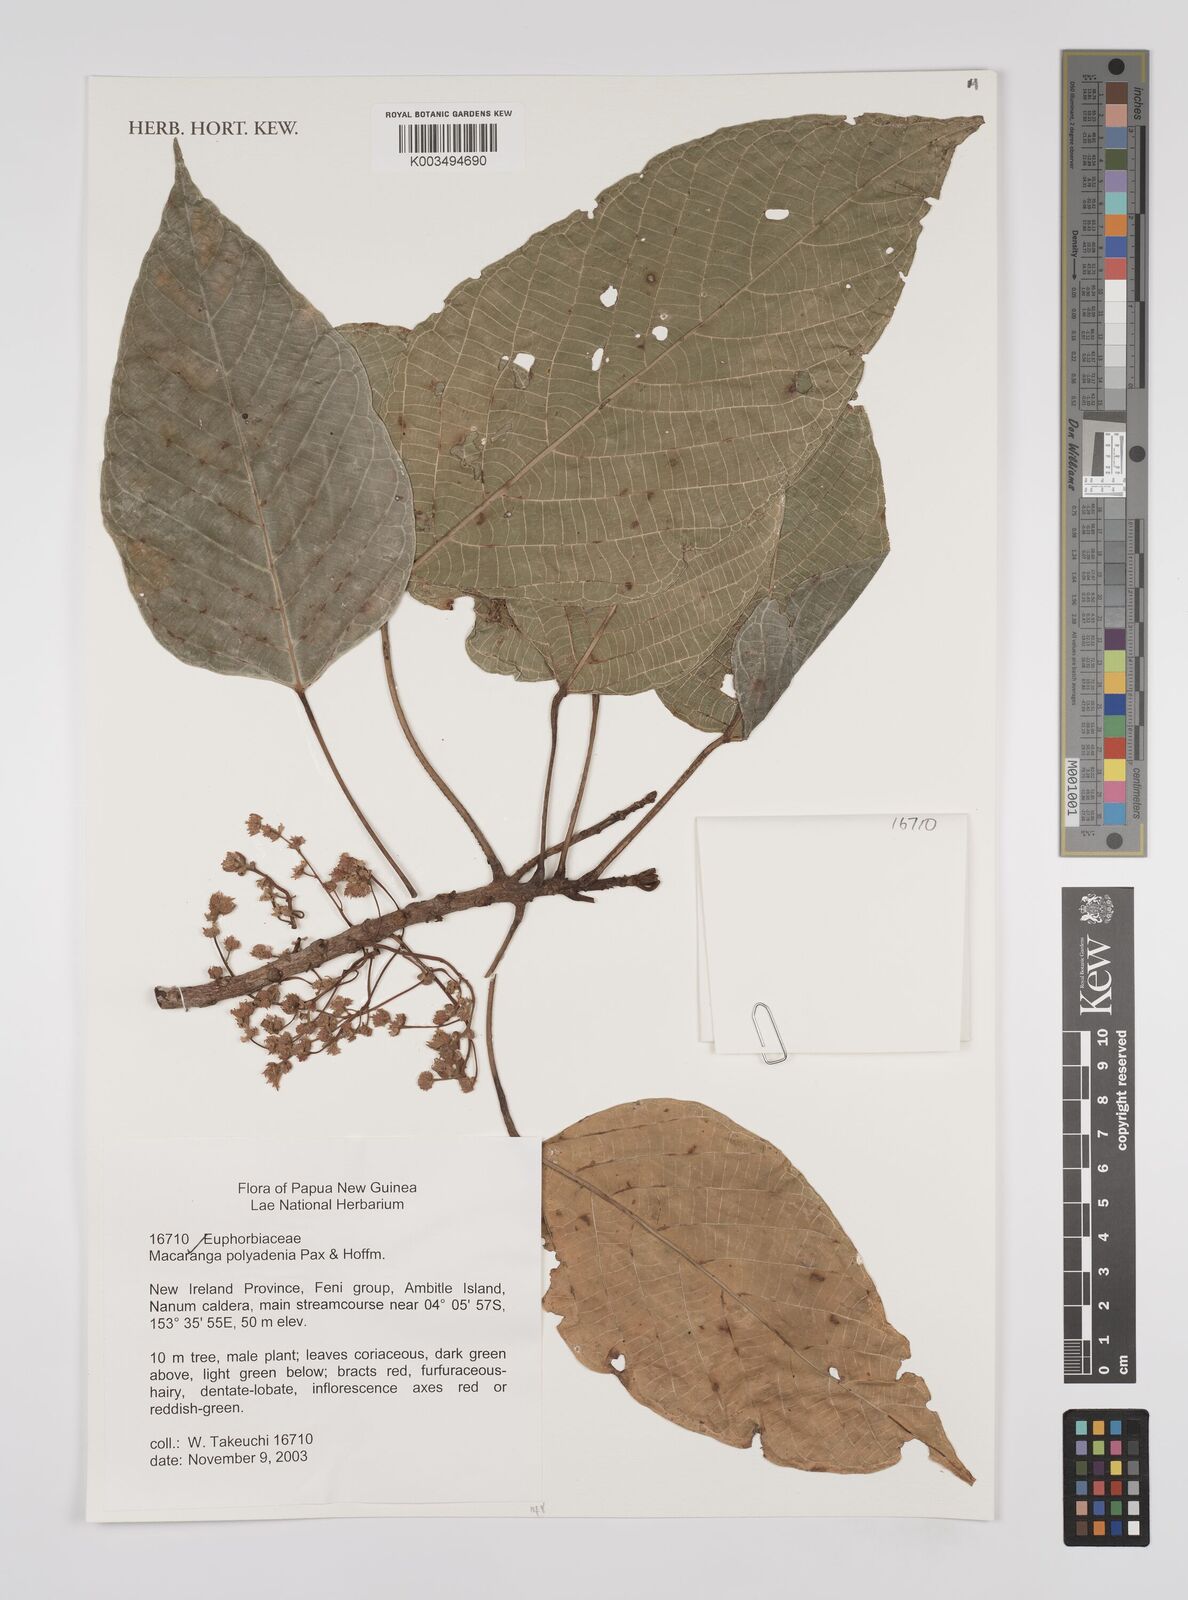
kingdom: Plantae
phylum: Tracheophyta
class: Magnoliopsida
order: Malpighiales
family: Euphorbiaceae
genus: Macaranga
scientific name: Macaranga polyadenia
